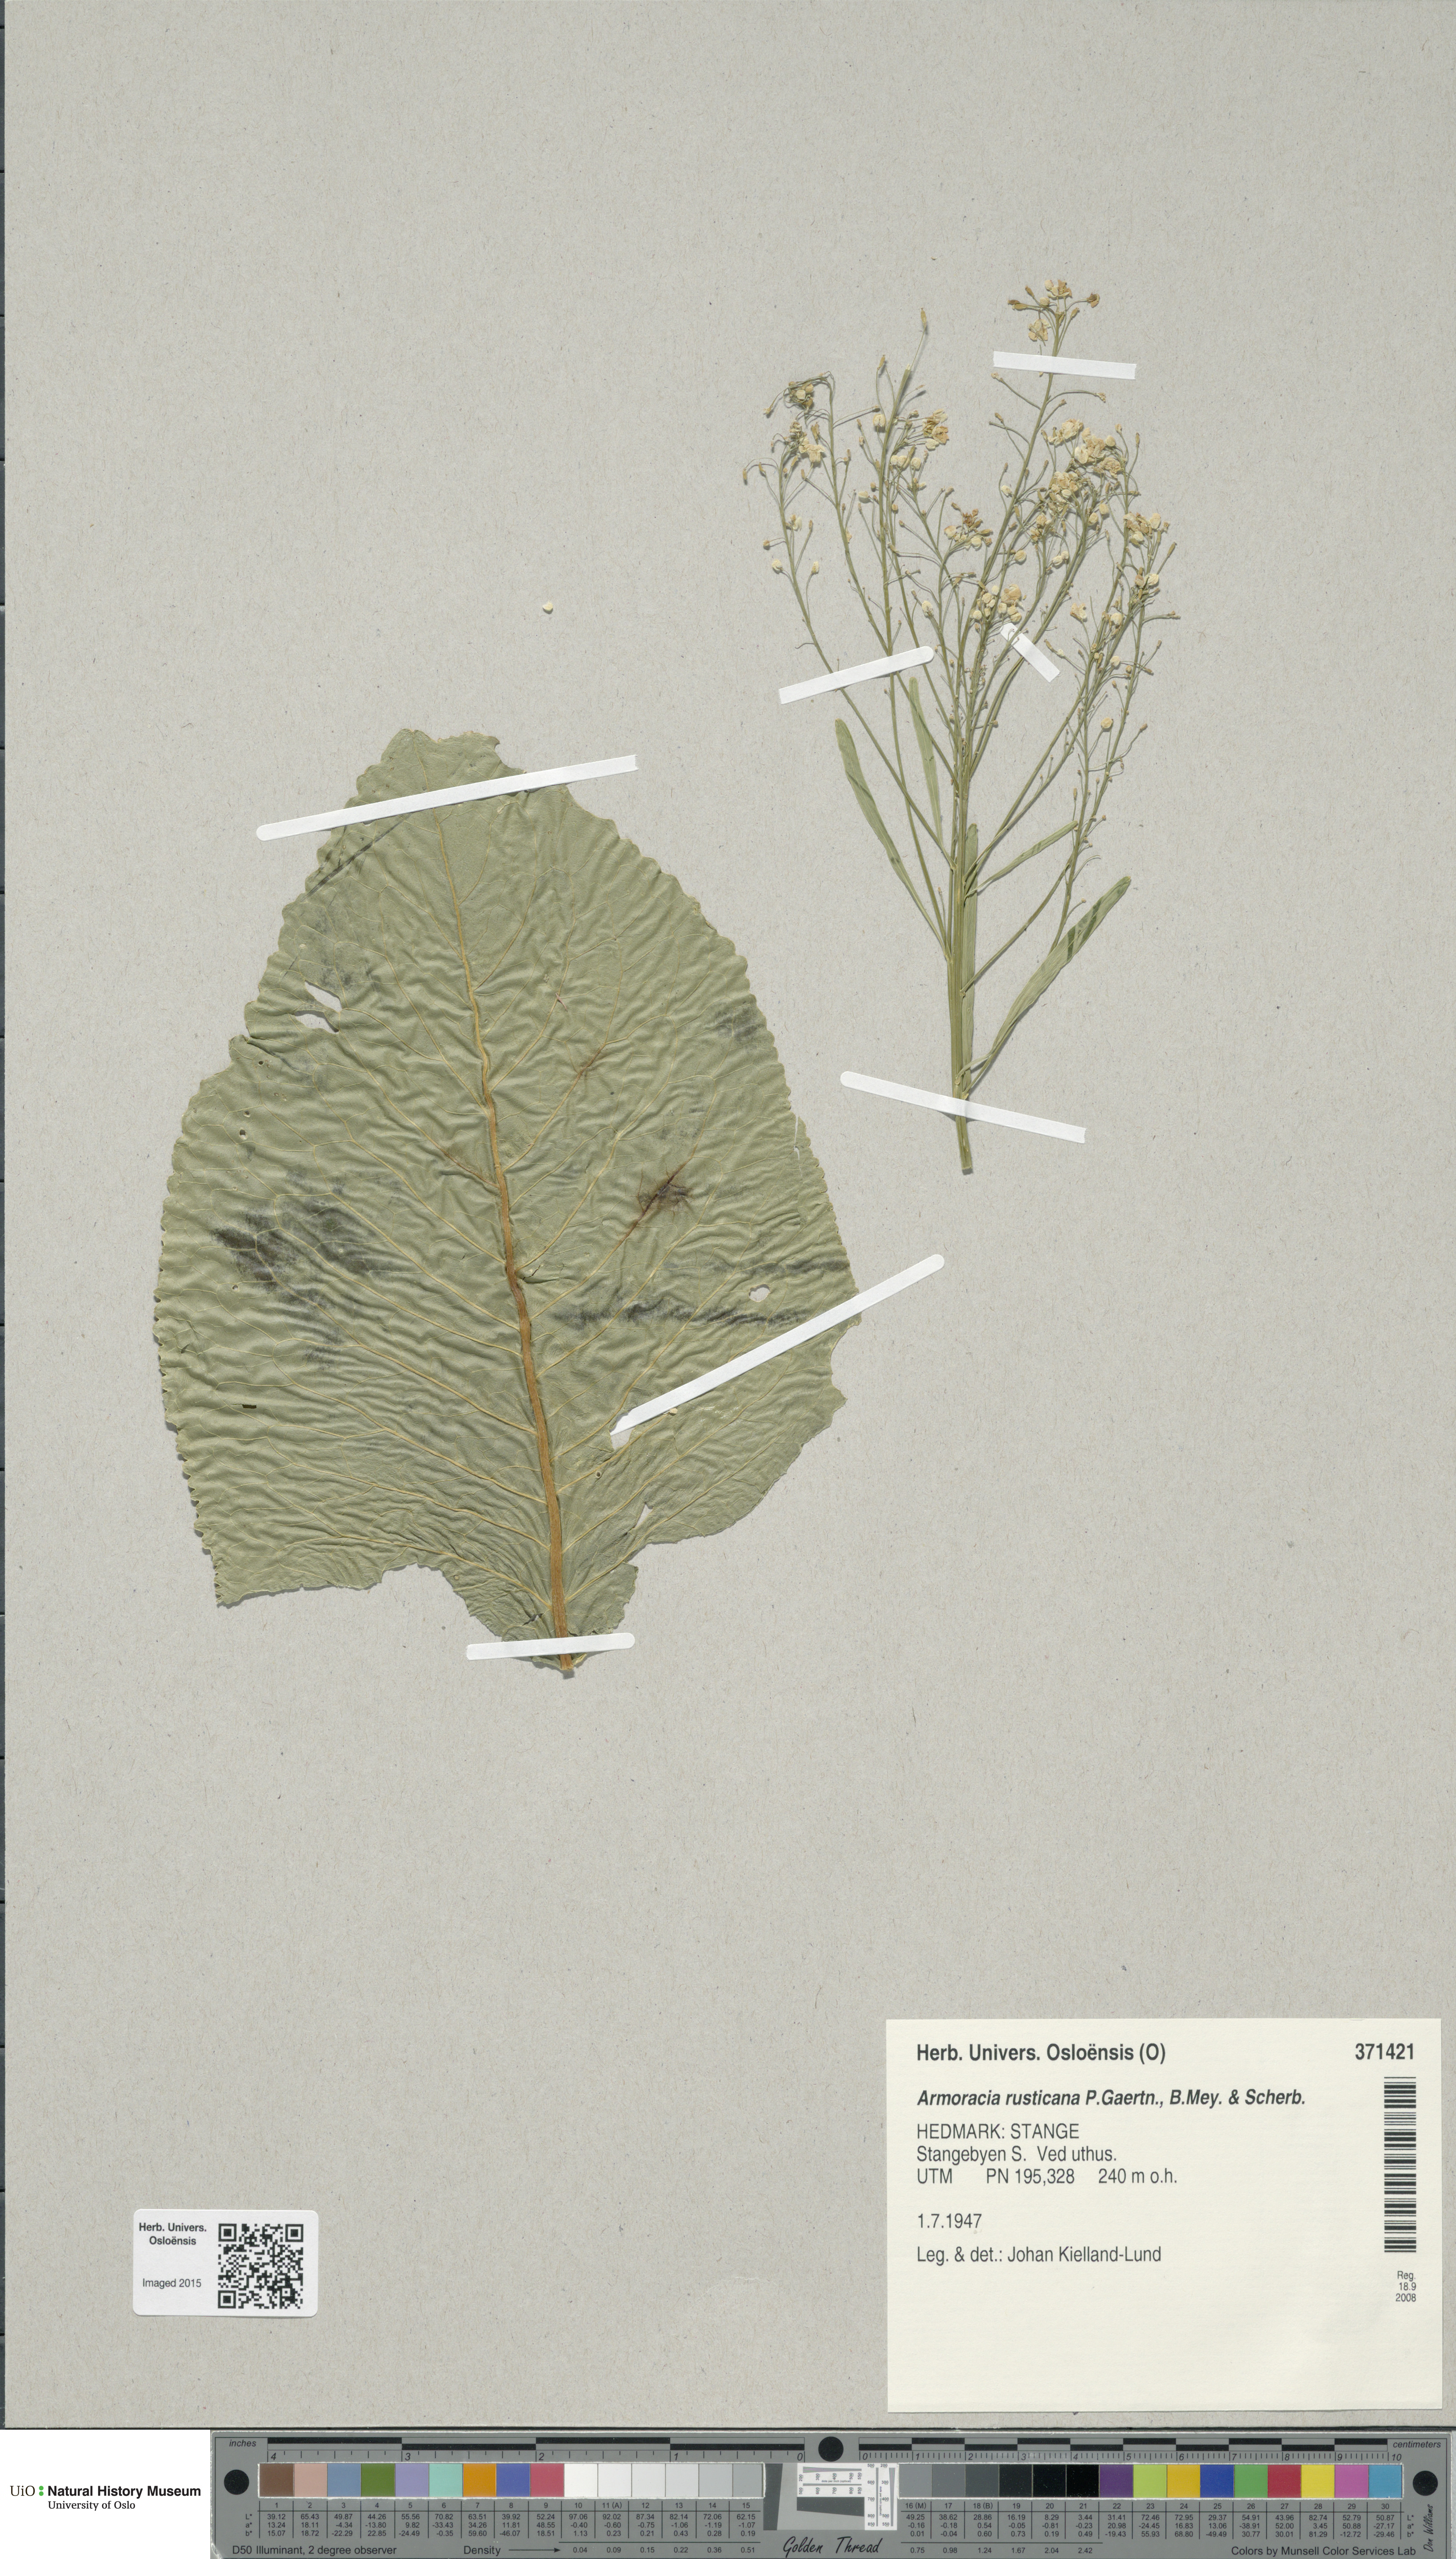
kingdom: Plantae
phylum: Tracheophyta
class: Magnoliopsida
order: Brassicales
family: Brassicaceae
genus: Armoracia
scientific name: Armoracia rusticana
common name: Horseradish
